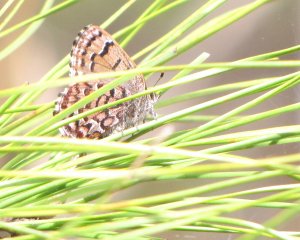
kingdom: Animalia
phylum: Arthropoda
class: Insecta
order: Lepidoptera
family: Lycaenidae
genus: Incisalia
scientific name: Incisalia niphon
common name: Eastern Pine Elfin
